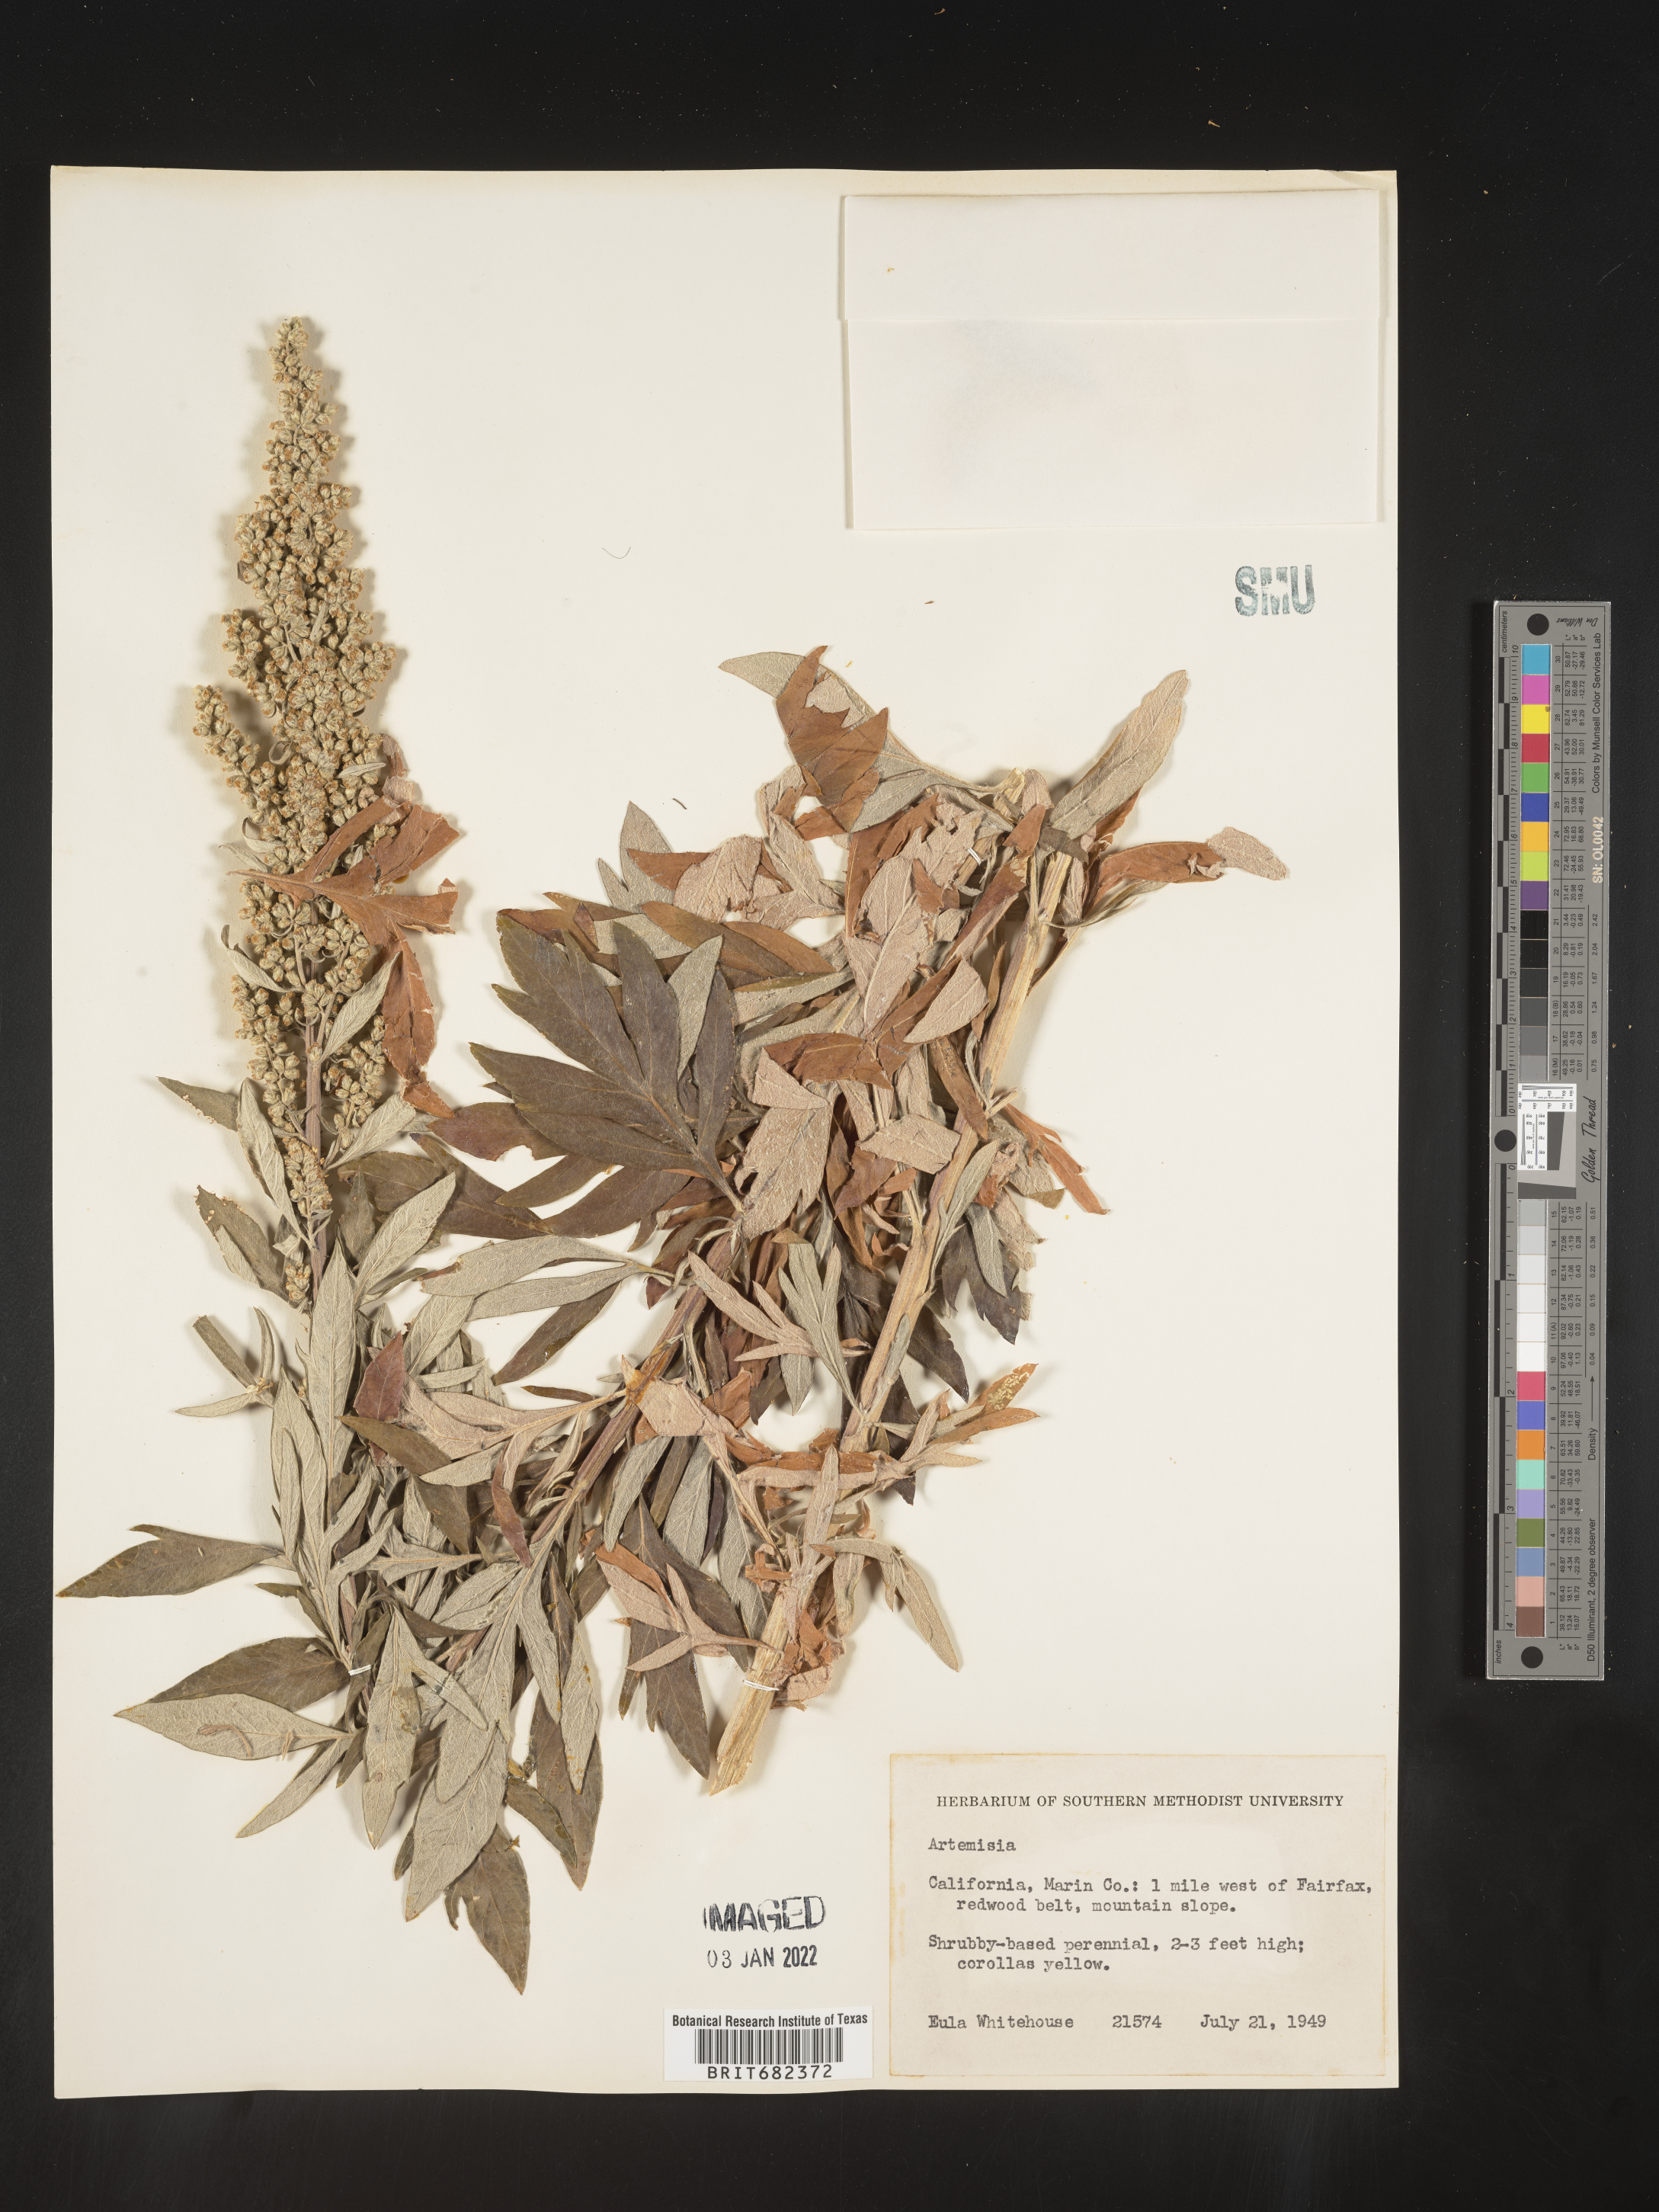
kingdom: Plantae
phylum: Tracheophyta
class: Magnoliopsida
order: Asterales
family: Asteraceae
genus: Artemisia
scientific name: Artemisia
